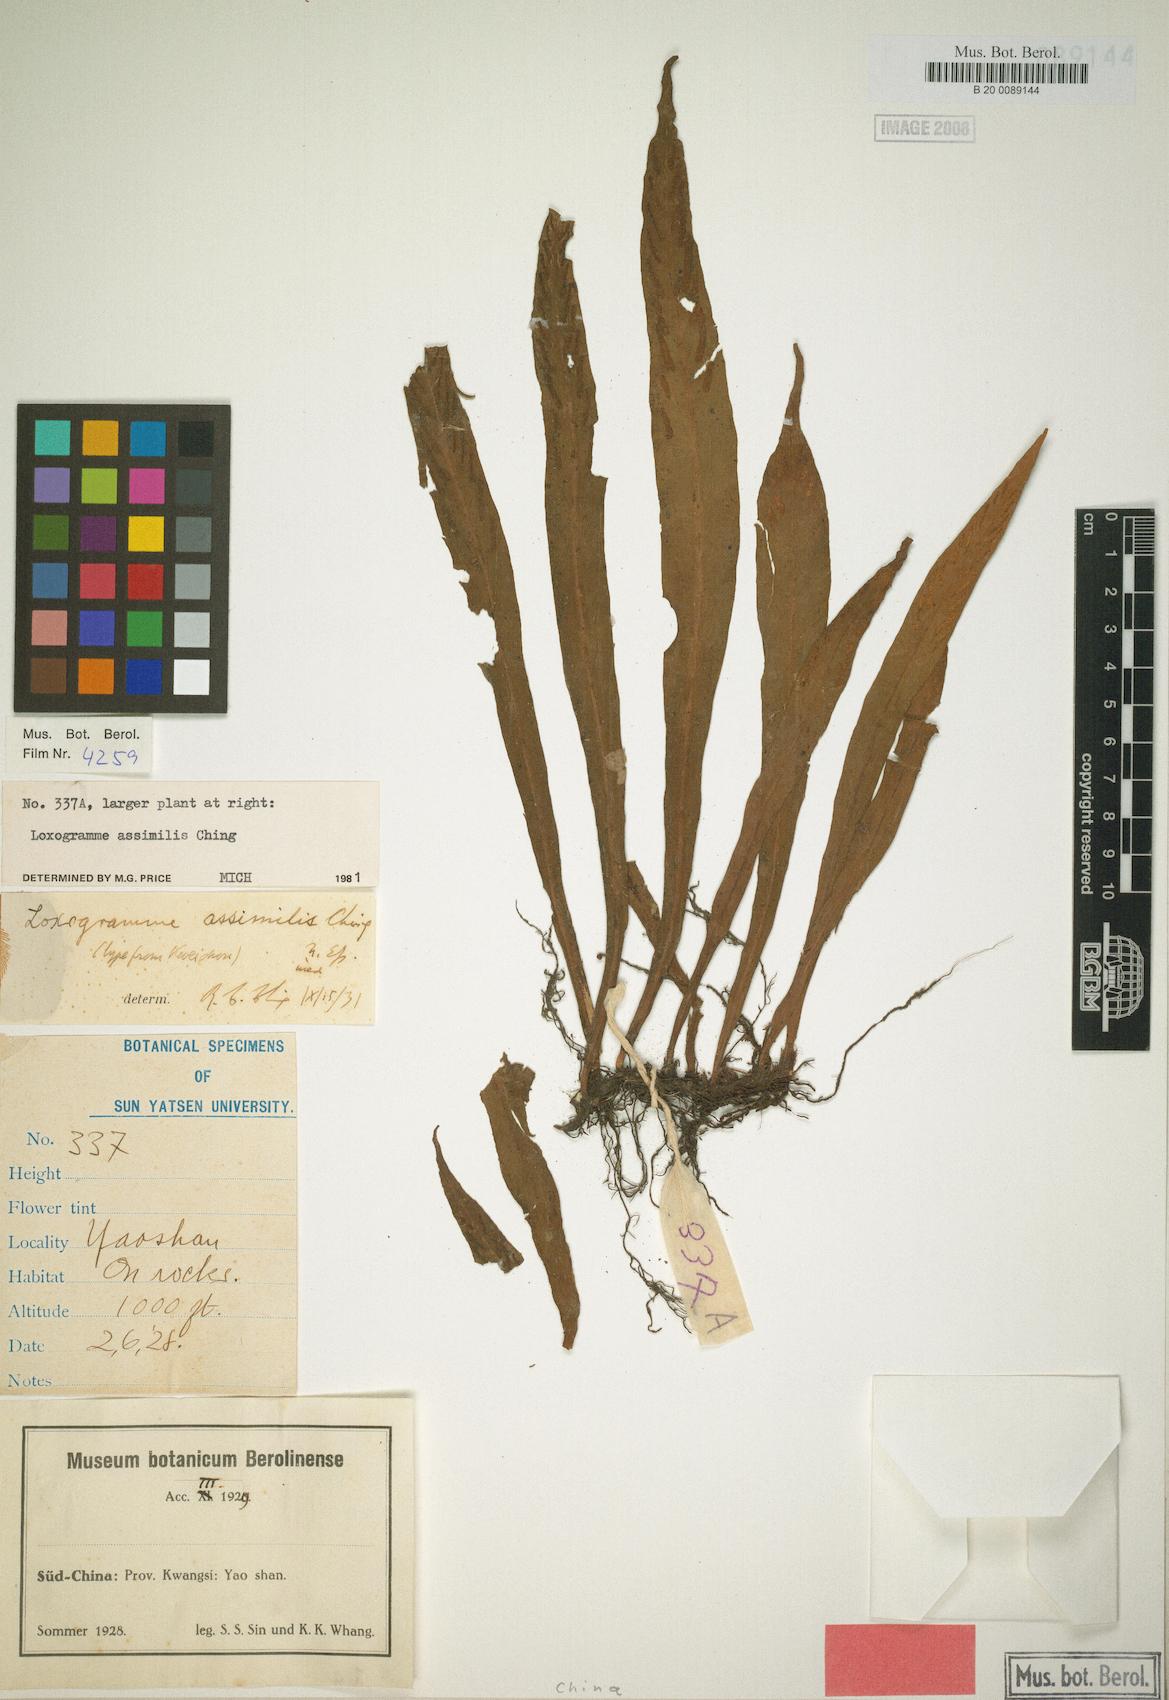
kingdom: Plantae
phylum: Tracheophyta
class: Polypodiopsida
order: Polypodiales
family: Polypodiaceae
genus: Loxogramme
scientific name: Loxogramme assimilis
